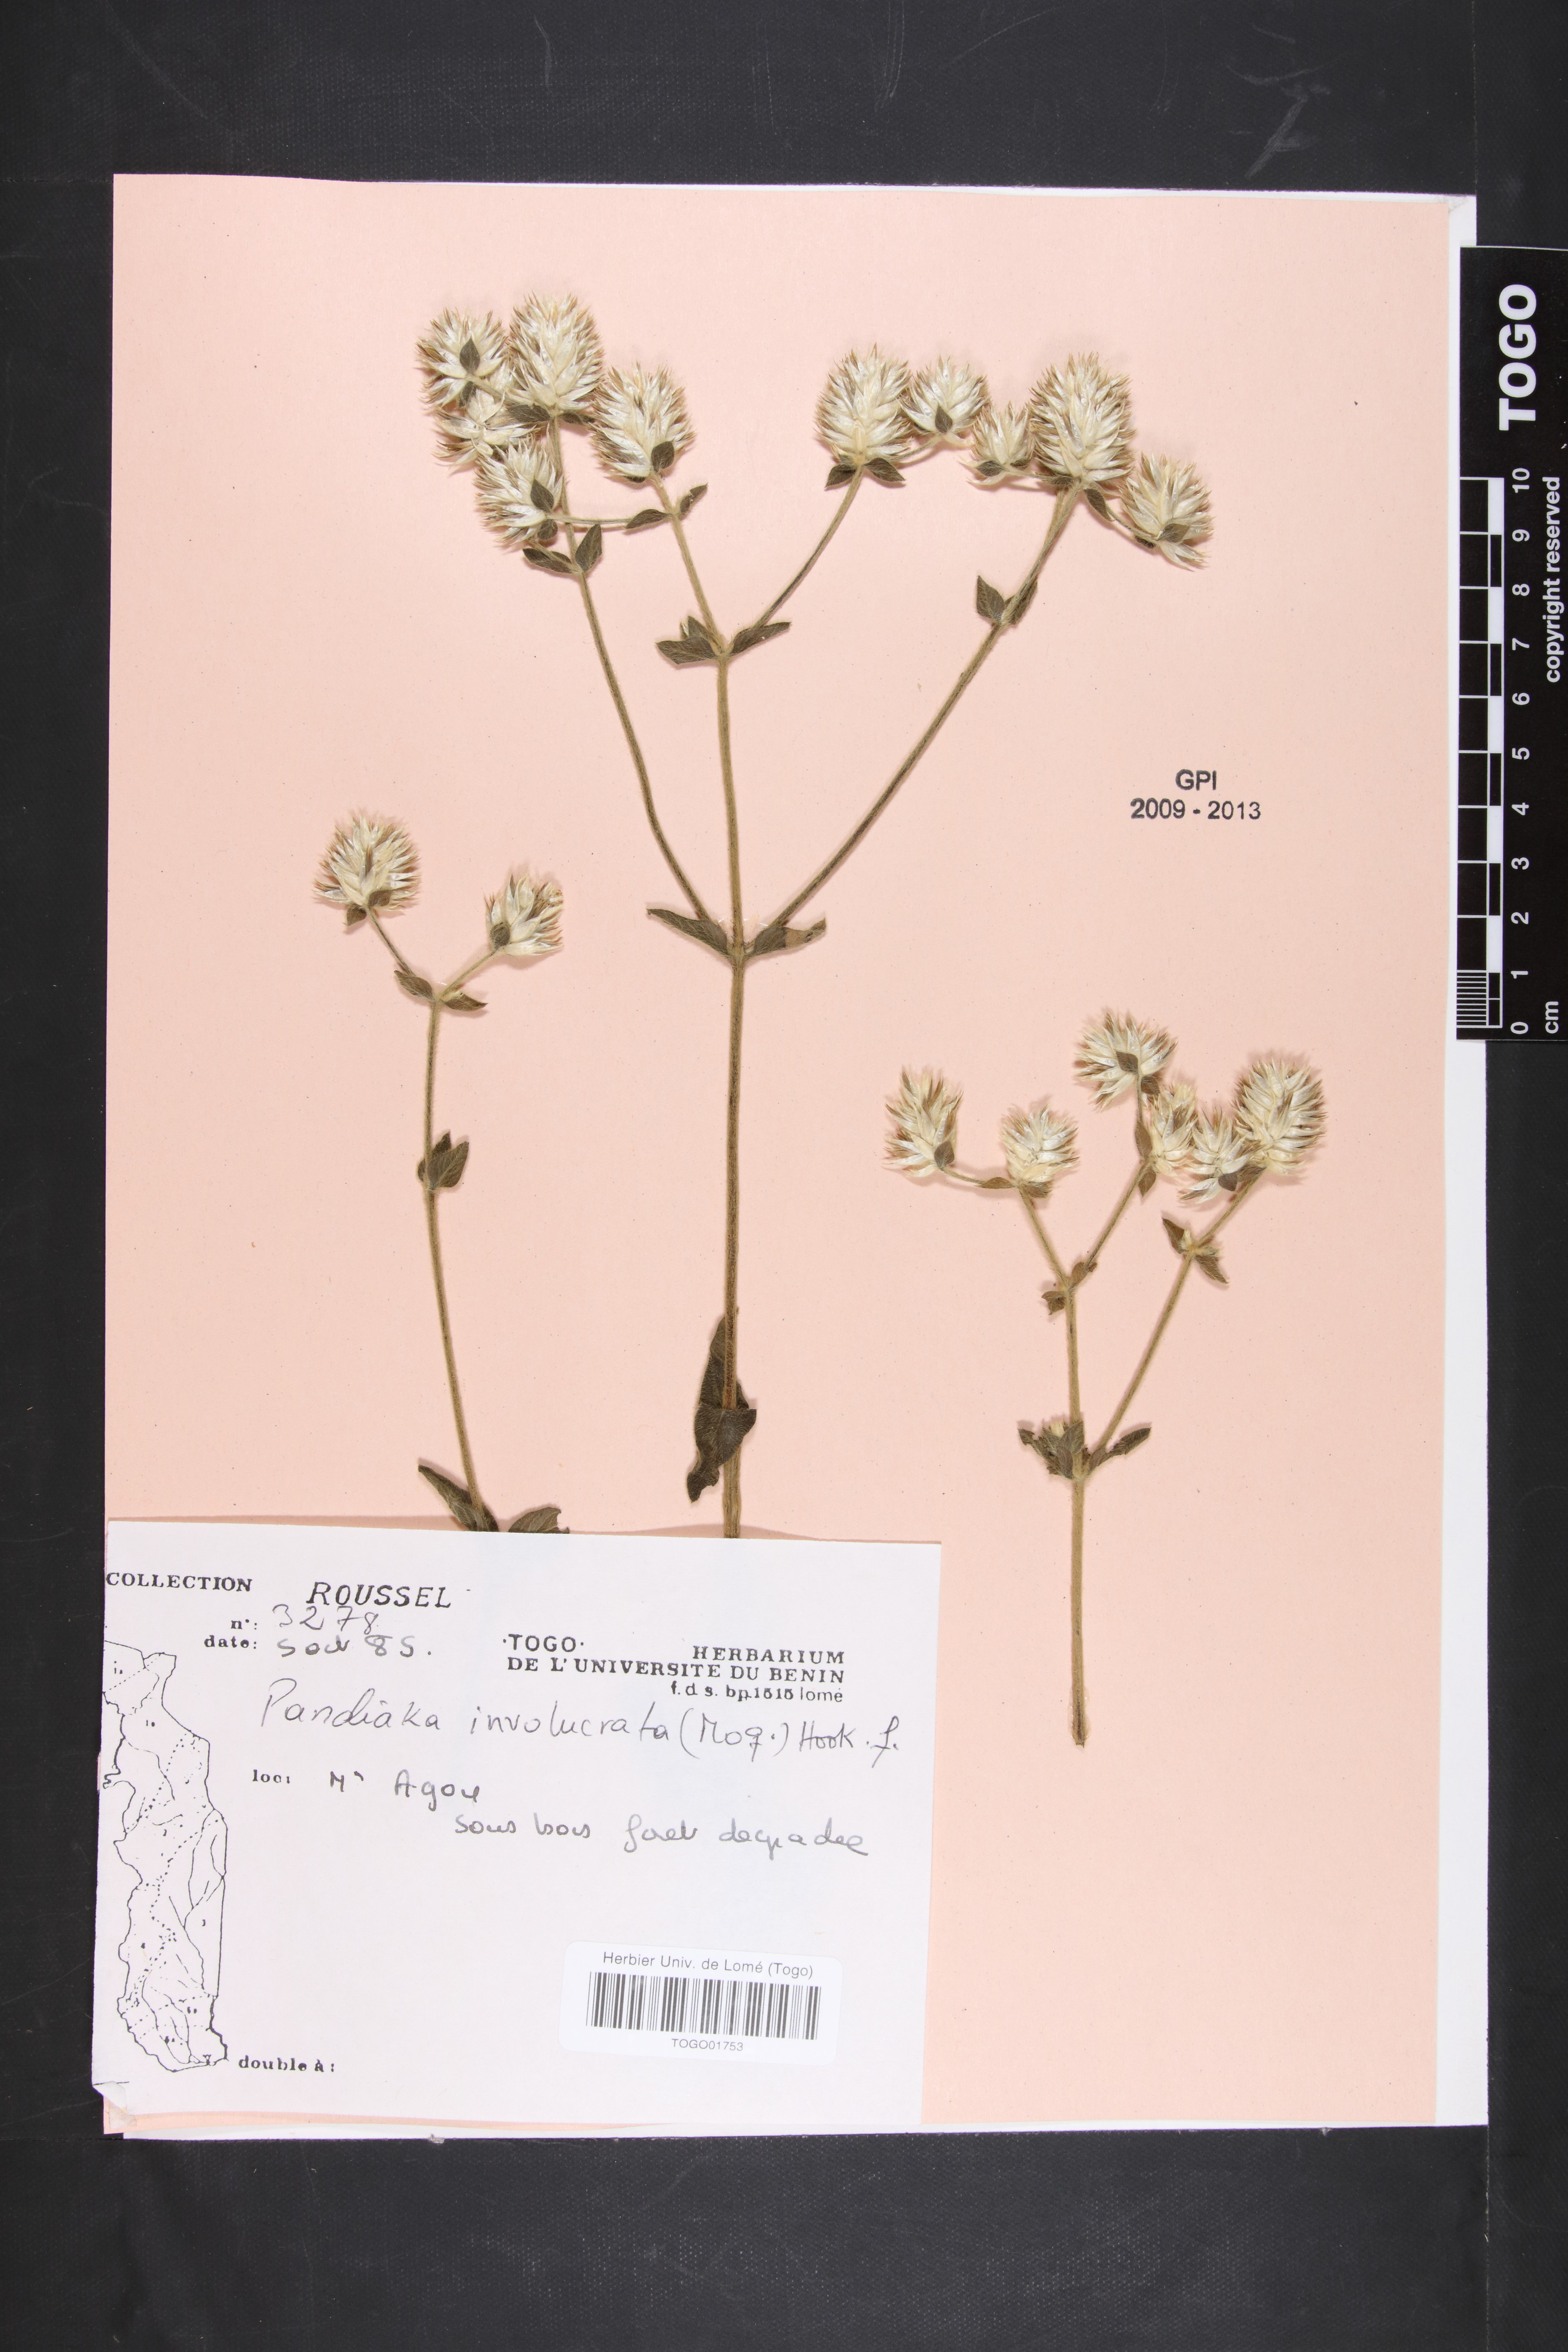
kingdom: Plantae
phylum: Tracheophyta
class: Magnoliopsida
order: Caryophyllales
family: Amaranthaceae
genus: Pandiaka
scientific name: Pandiaka involucrata
